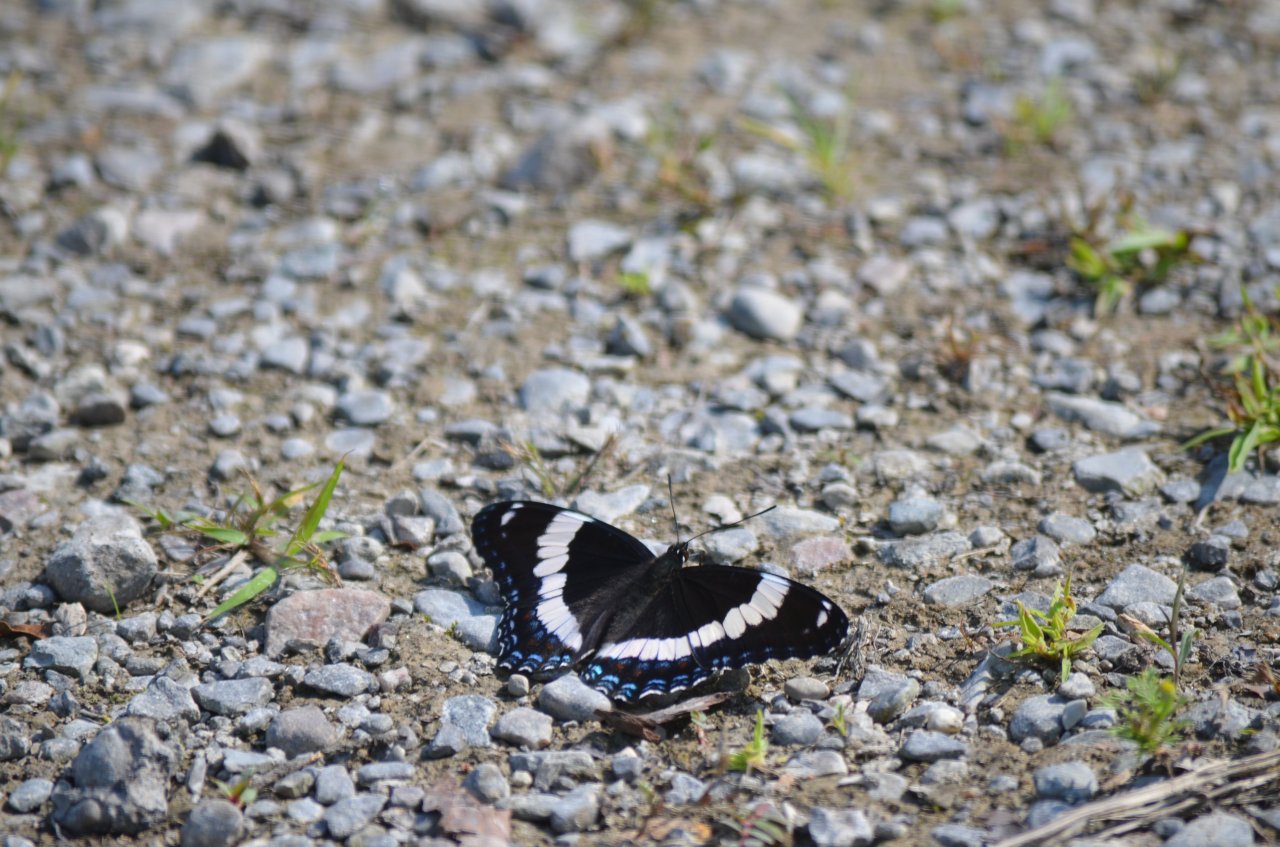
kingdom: Animalia
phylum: Arthropoda
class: Insecta
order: Lepidoptera
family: Nymphalidae
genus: Limenitis
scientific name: Limenitis arthemis
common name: Red-spotted Admiral
